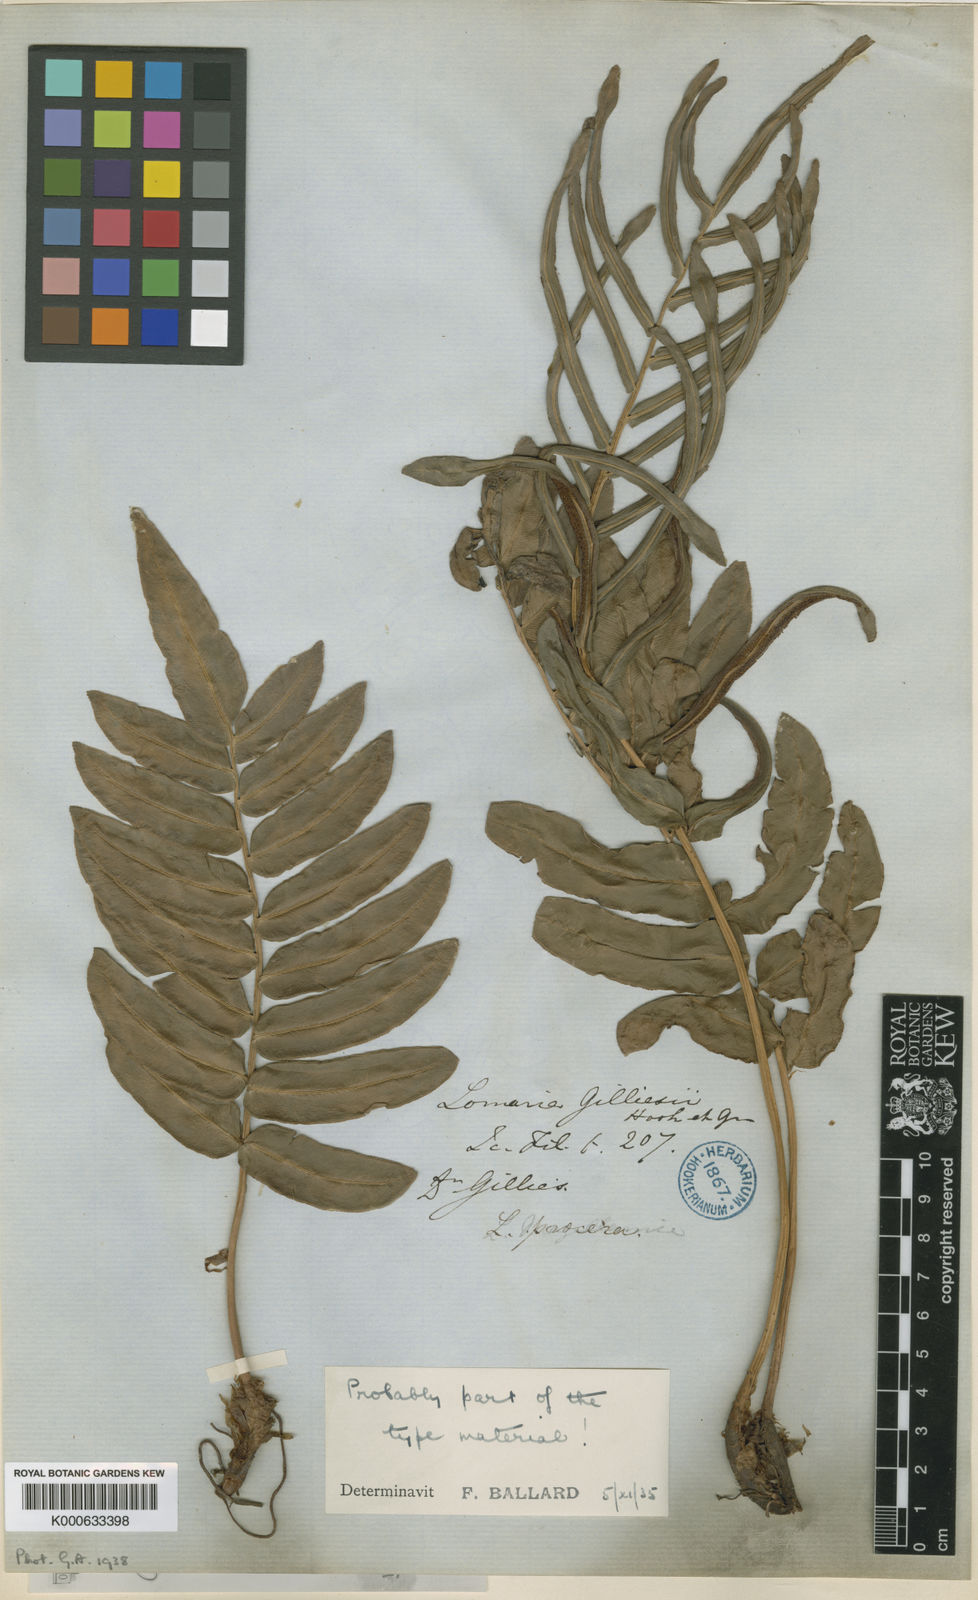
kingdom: Plantae
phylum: Tracheophyta
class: Polypodiopsida
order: Polypodiales
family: Blechnaceae
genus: Parablechnum
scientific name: Parablechnum cordatum
